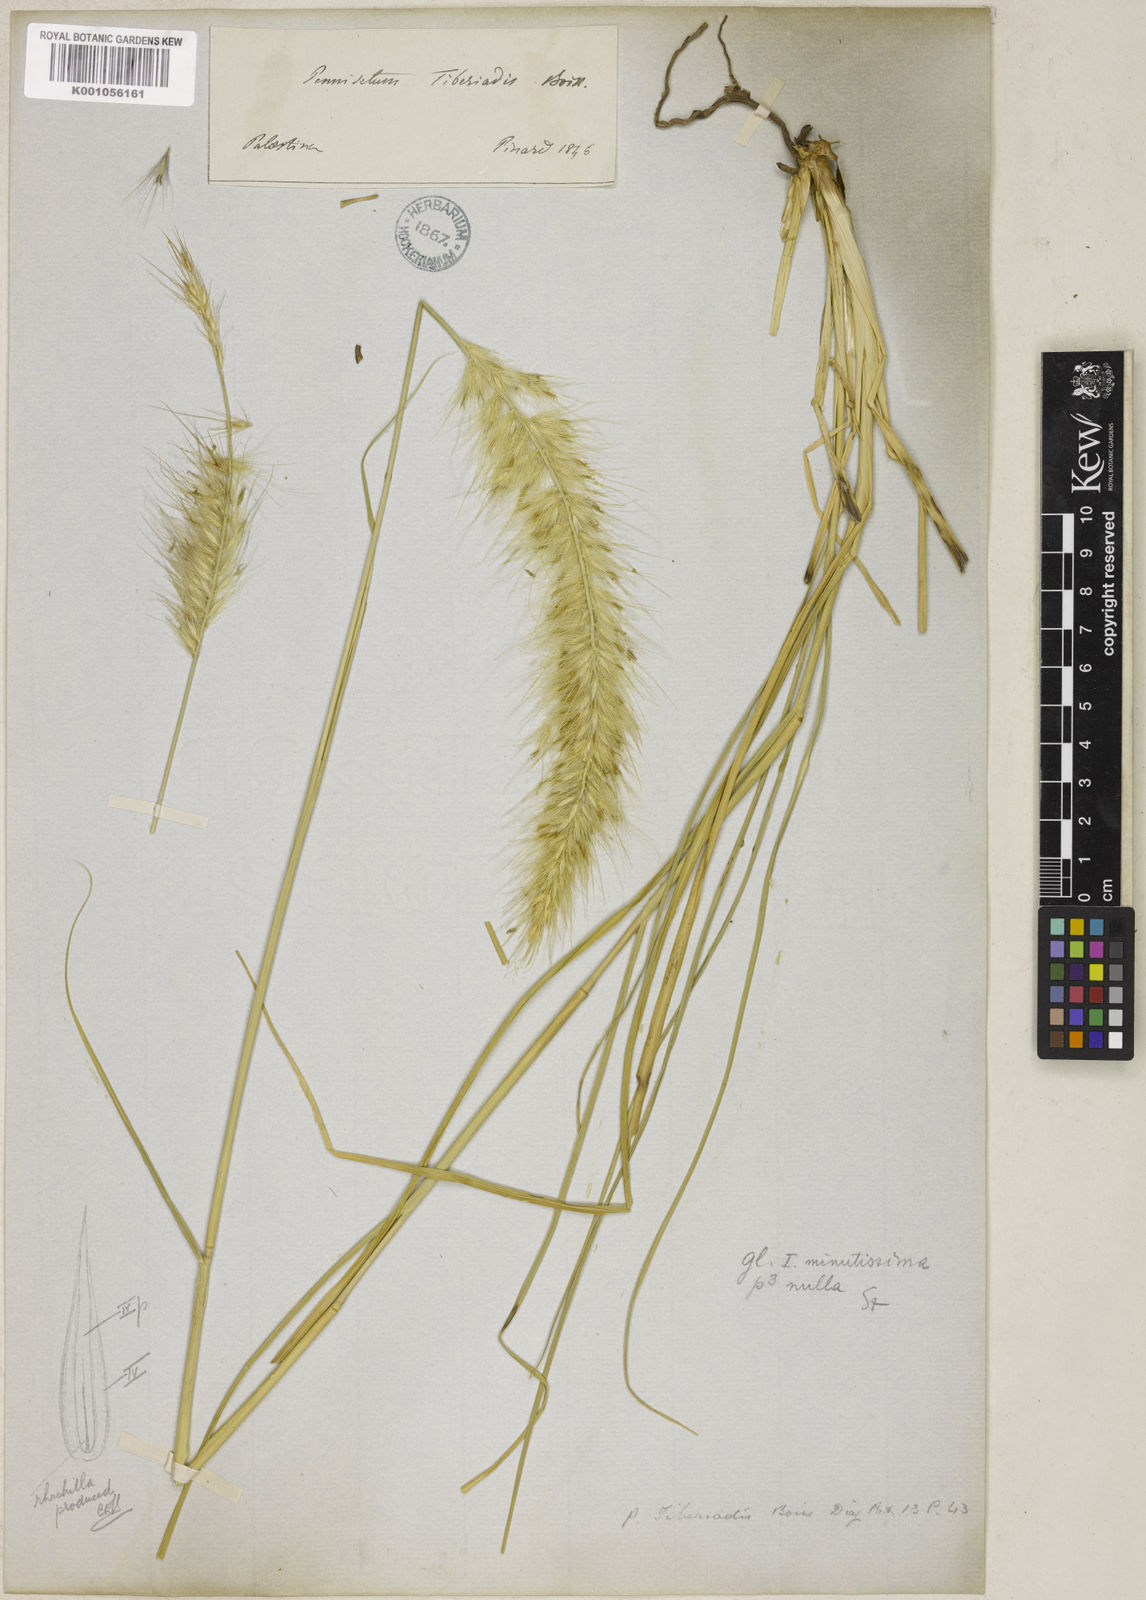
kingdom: Plantae
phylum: Tracheophyta
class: Liliopsida
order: Poales
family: Poaceae
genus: Cenchrus
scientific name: Cenchrus setaceus
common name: Crimson fountaingrass
